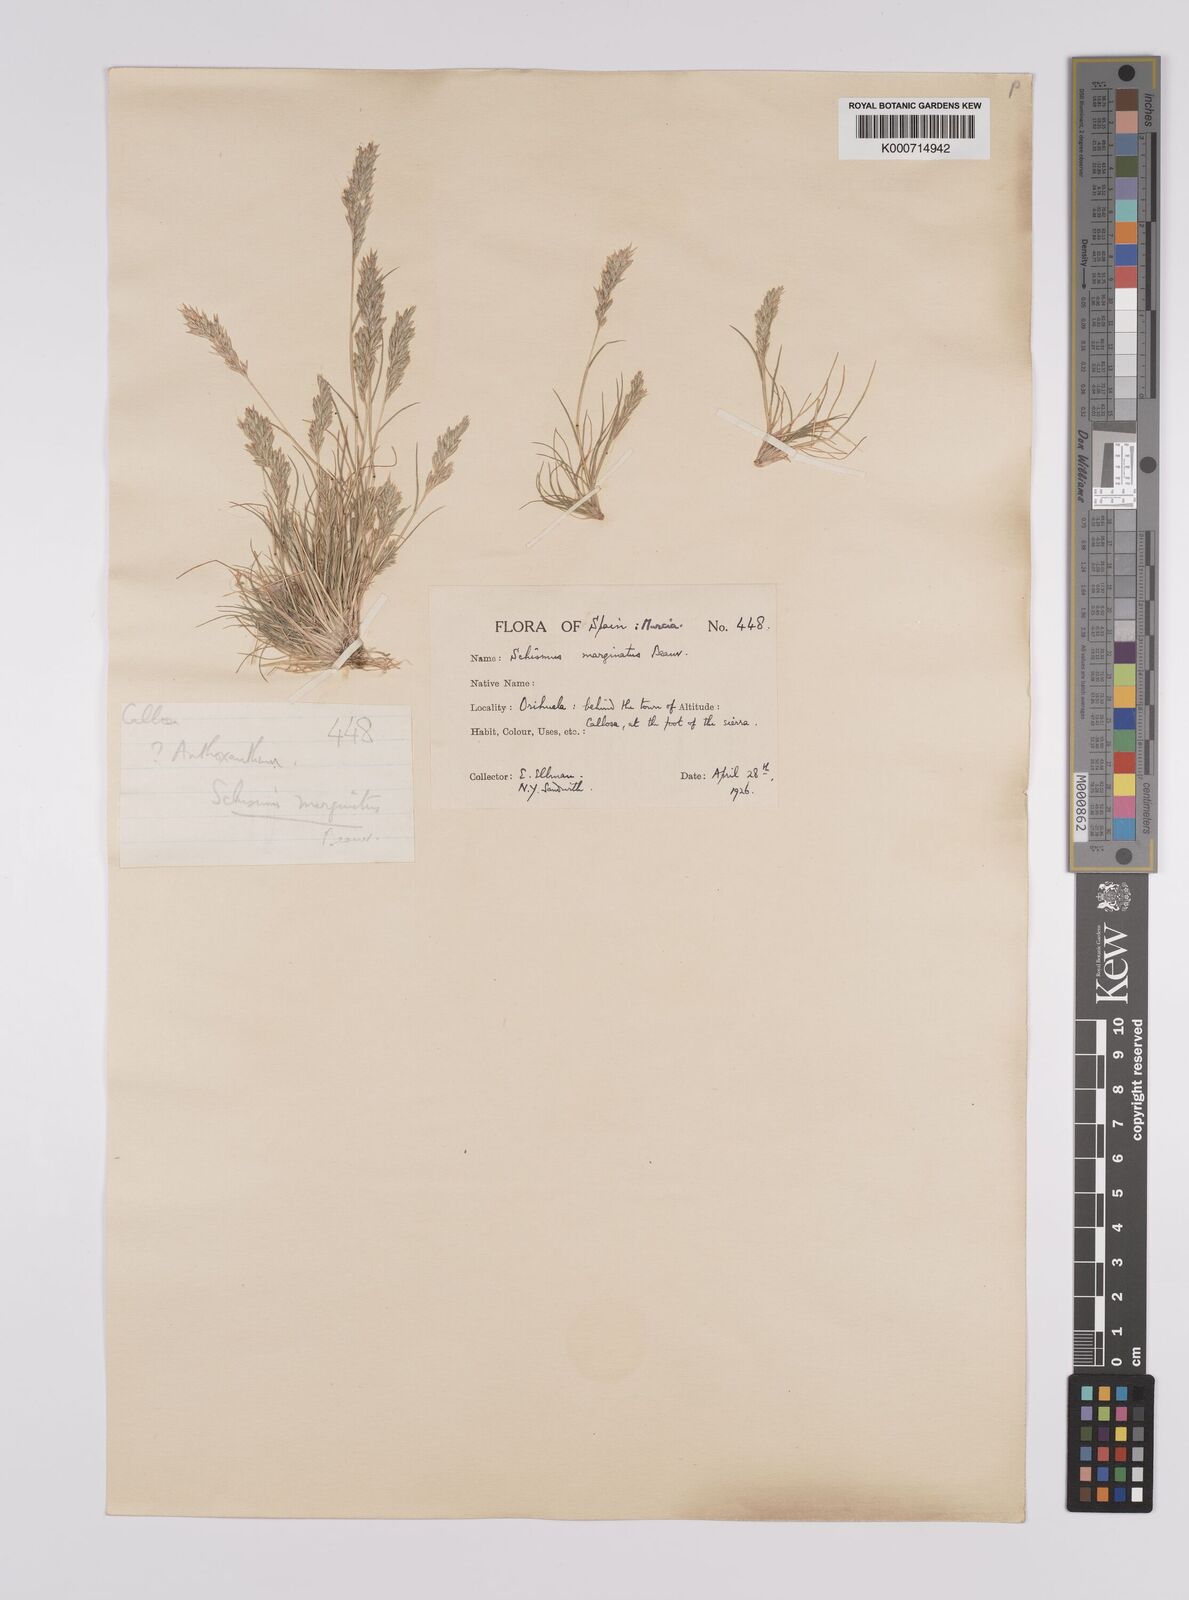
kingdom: Plantae
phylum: Tracheophyta
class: Liliopsida
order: Poales
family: Poaceae
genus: Schismus
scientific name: Schismus barbatus
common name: Kelch-grass
